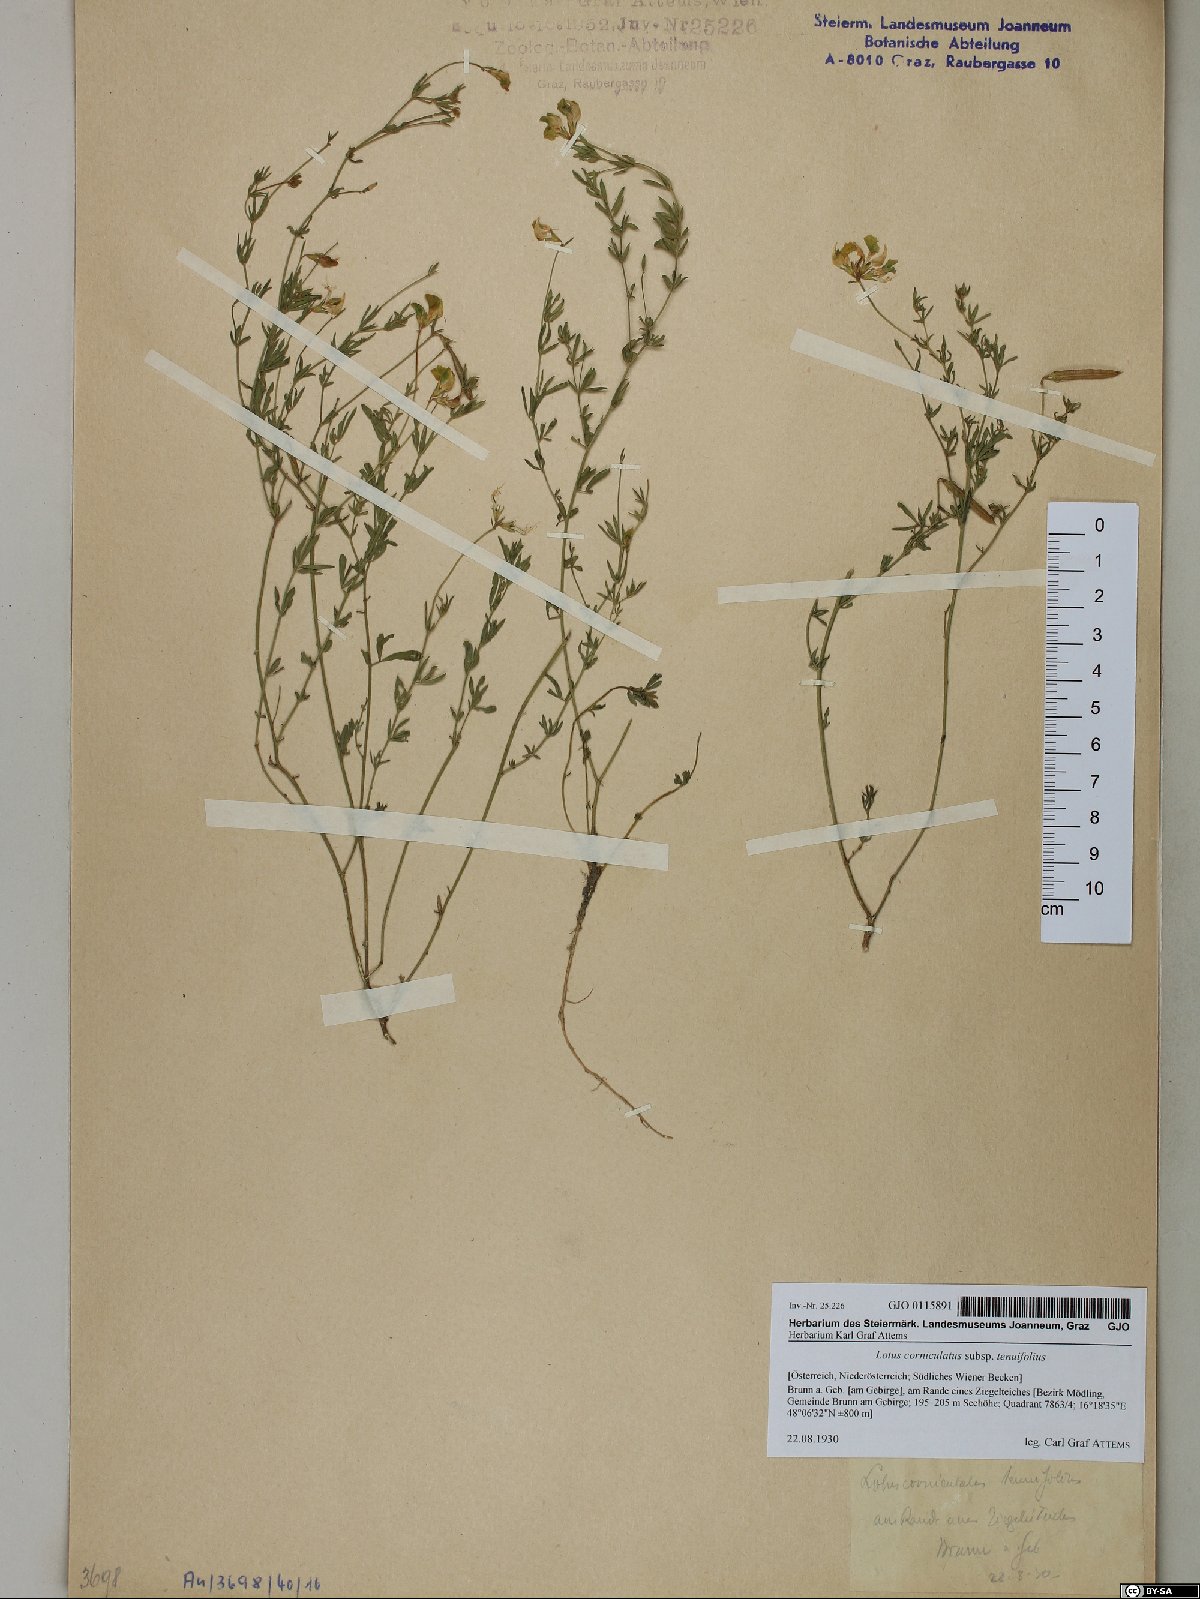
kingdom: Plantae
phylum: Tracheophyta
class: Magnoliopsida
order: Fabales
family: Fabaceae
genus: Lotus
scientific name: Lotus tenuis
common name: Narrow-leaved bird's-foot-trefoil
